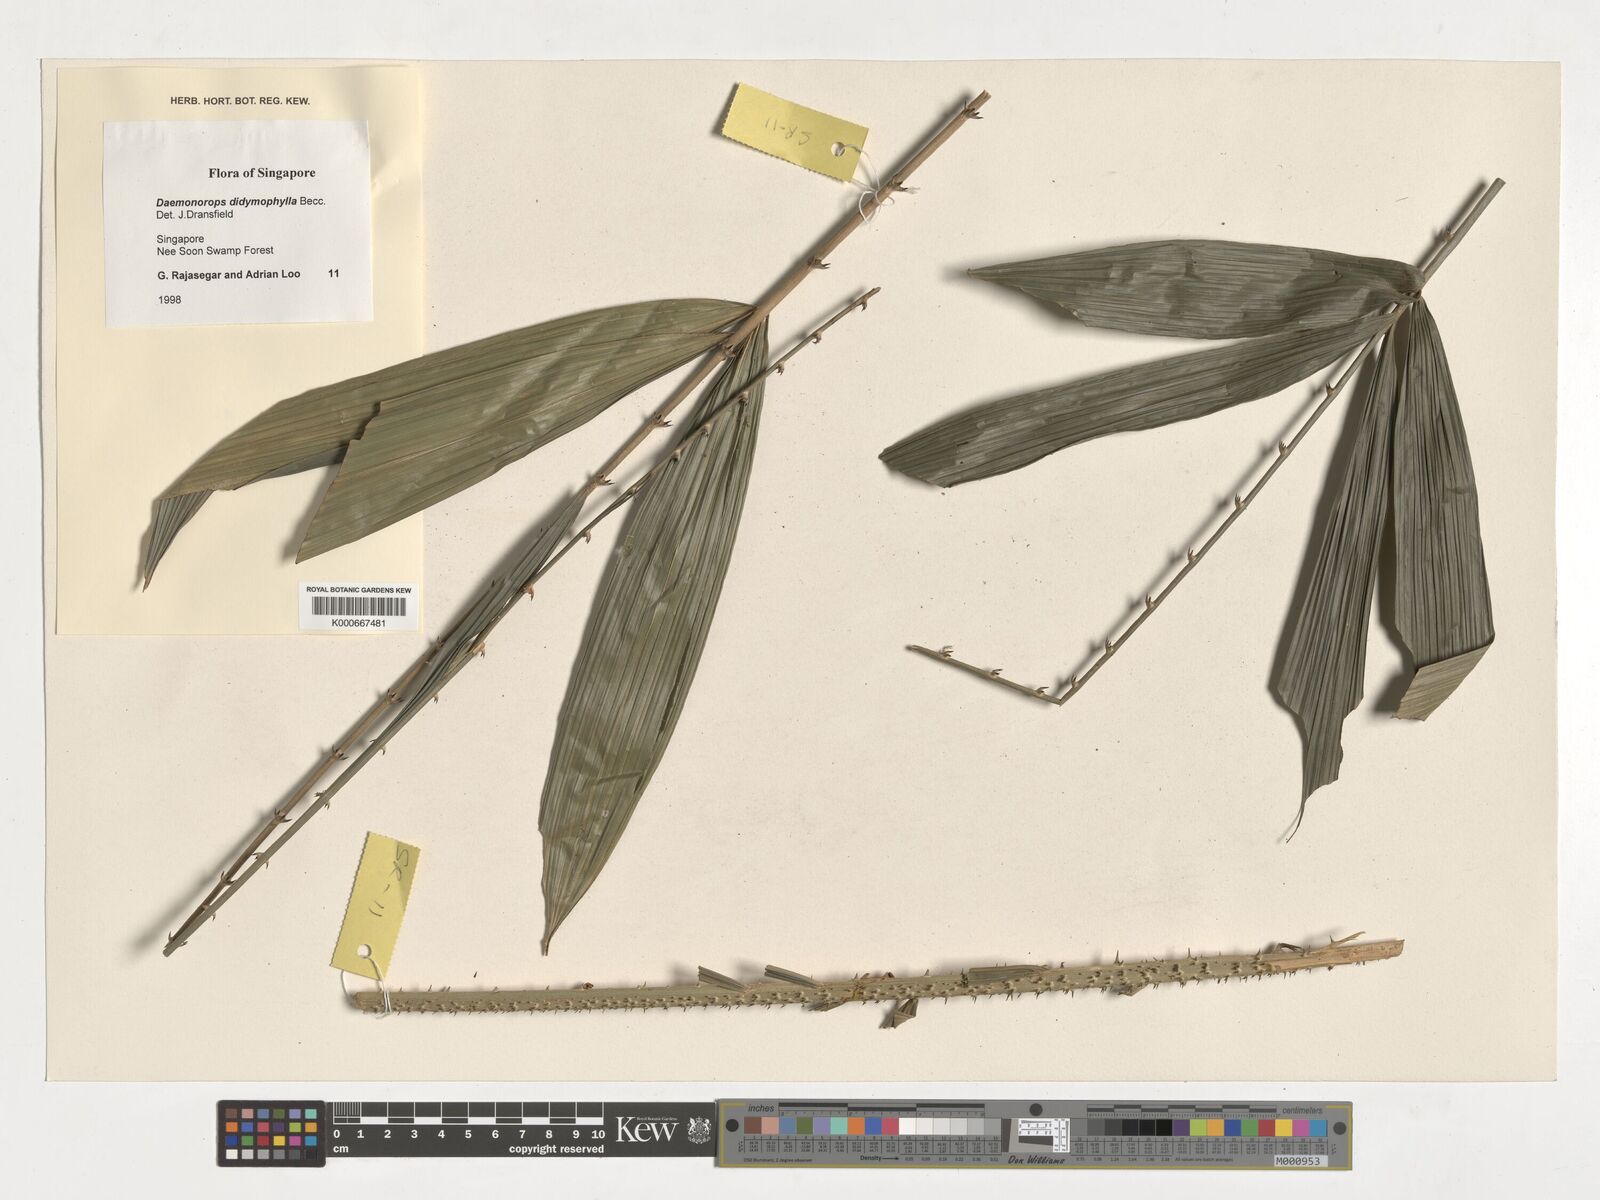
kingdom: Plantae
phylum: Tracheophyta
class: Liliopsida
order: Arecales
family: Arecaceae
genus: Calamus
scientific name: Calamus gracilipes
